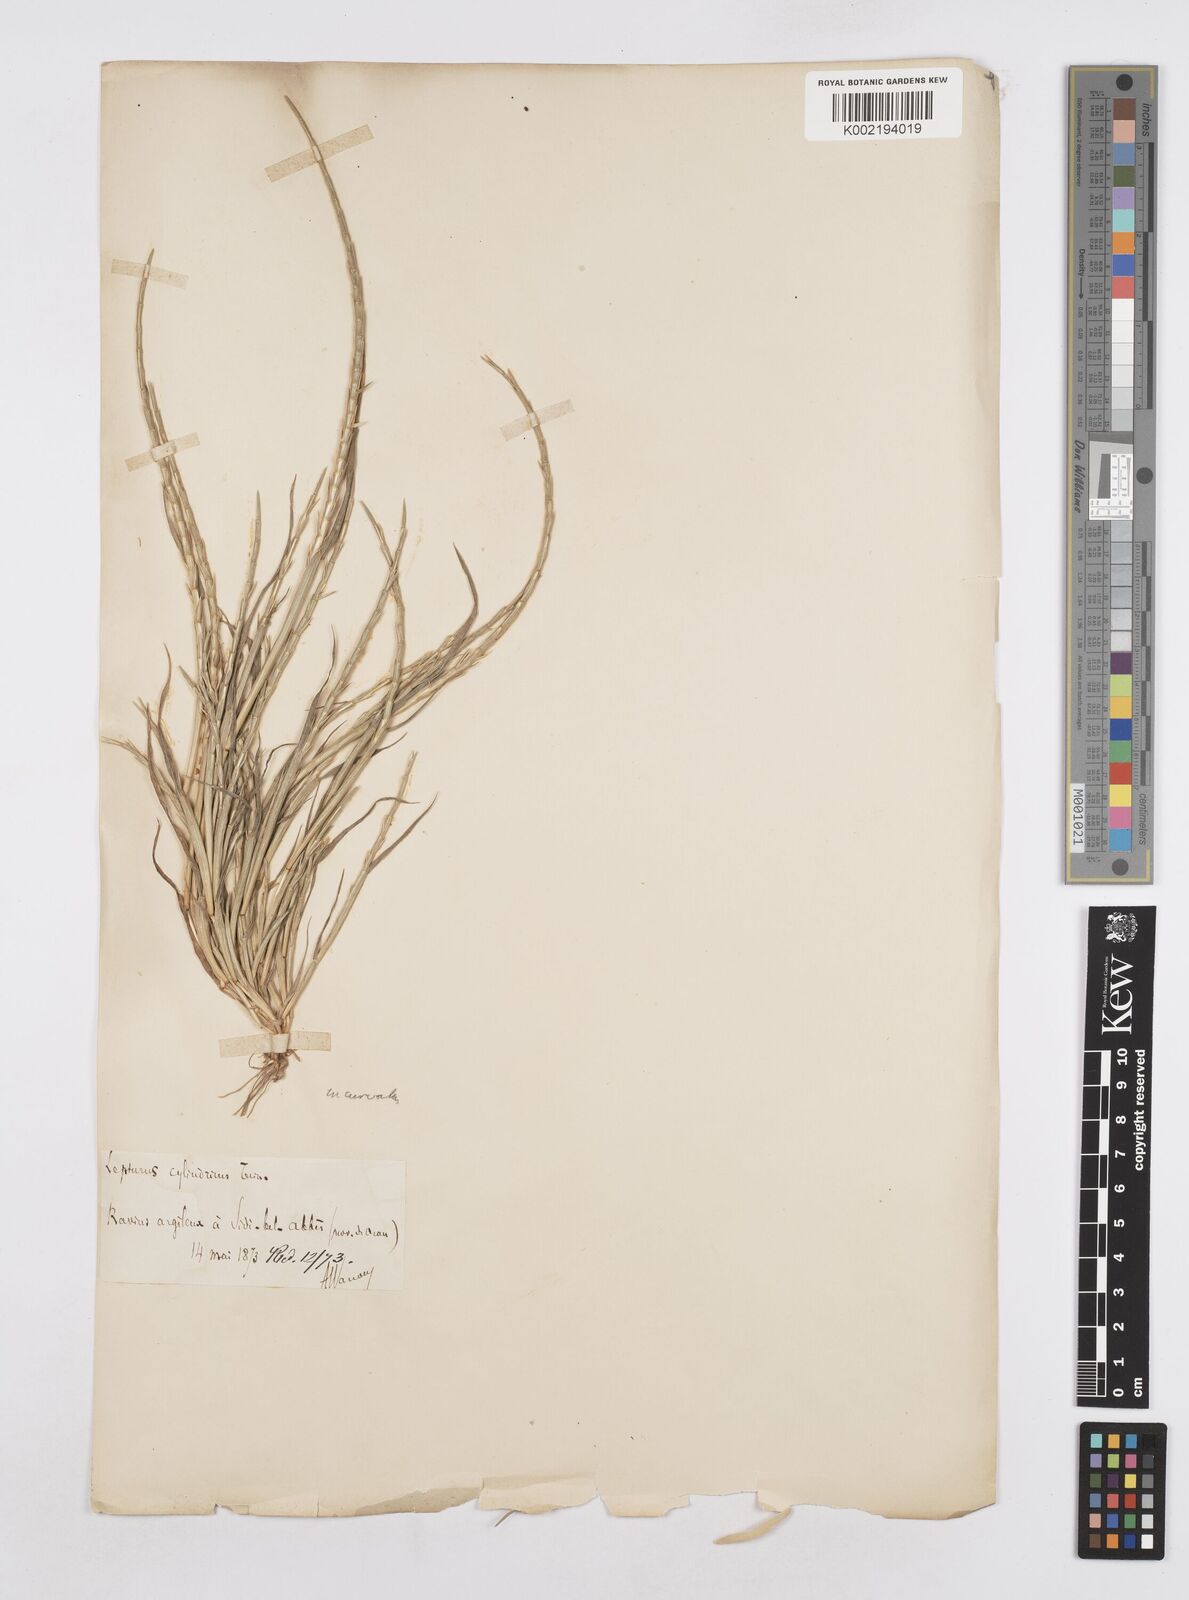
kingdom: Plantae
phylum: Tracheophyta
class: Liliopsida
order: Poales
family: Poaceae
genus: Parapholis
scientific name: Parapholis incurva
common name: Curved sicklegrass
